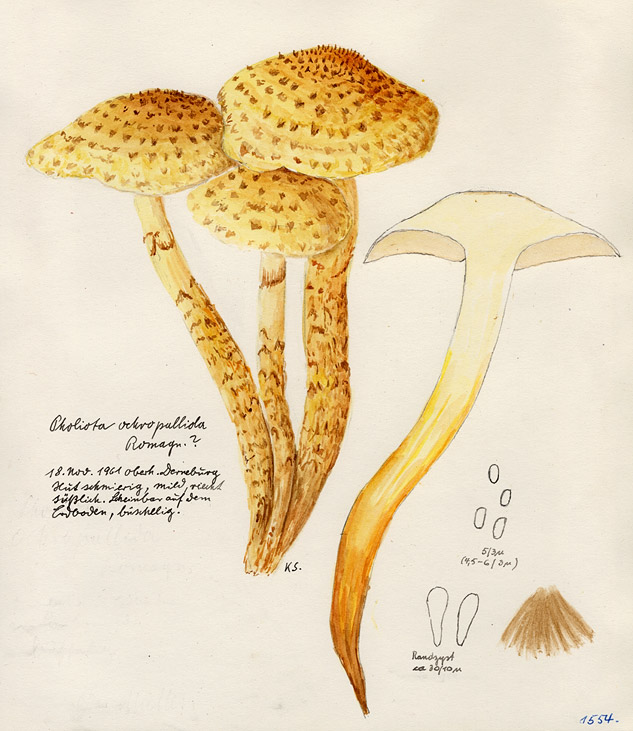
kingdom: Fungi
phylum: Basidiomycota
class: Agaricomycetes
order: Agaricales
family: Strophariaceae
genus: Pholiota
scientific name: Pholiota squarrosoides
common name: Sharp-scaly pholiota
